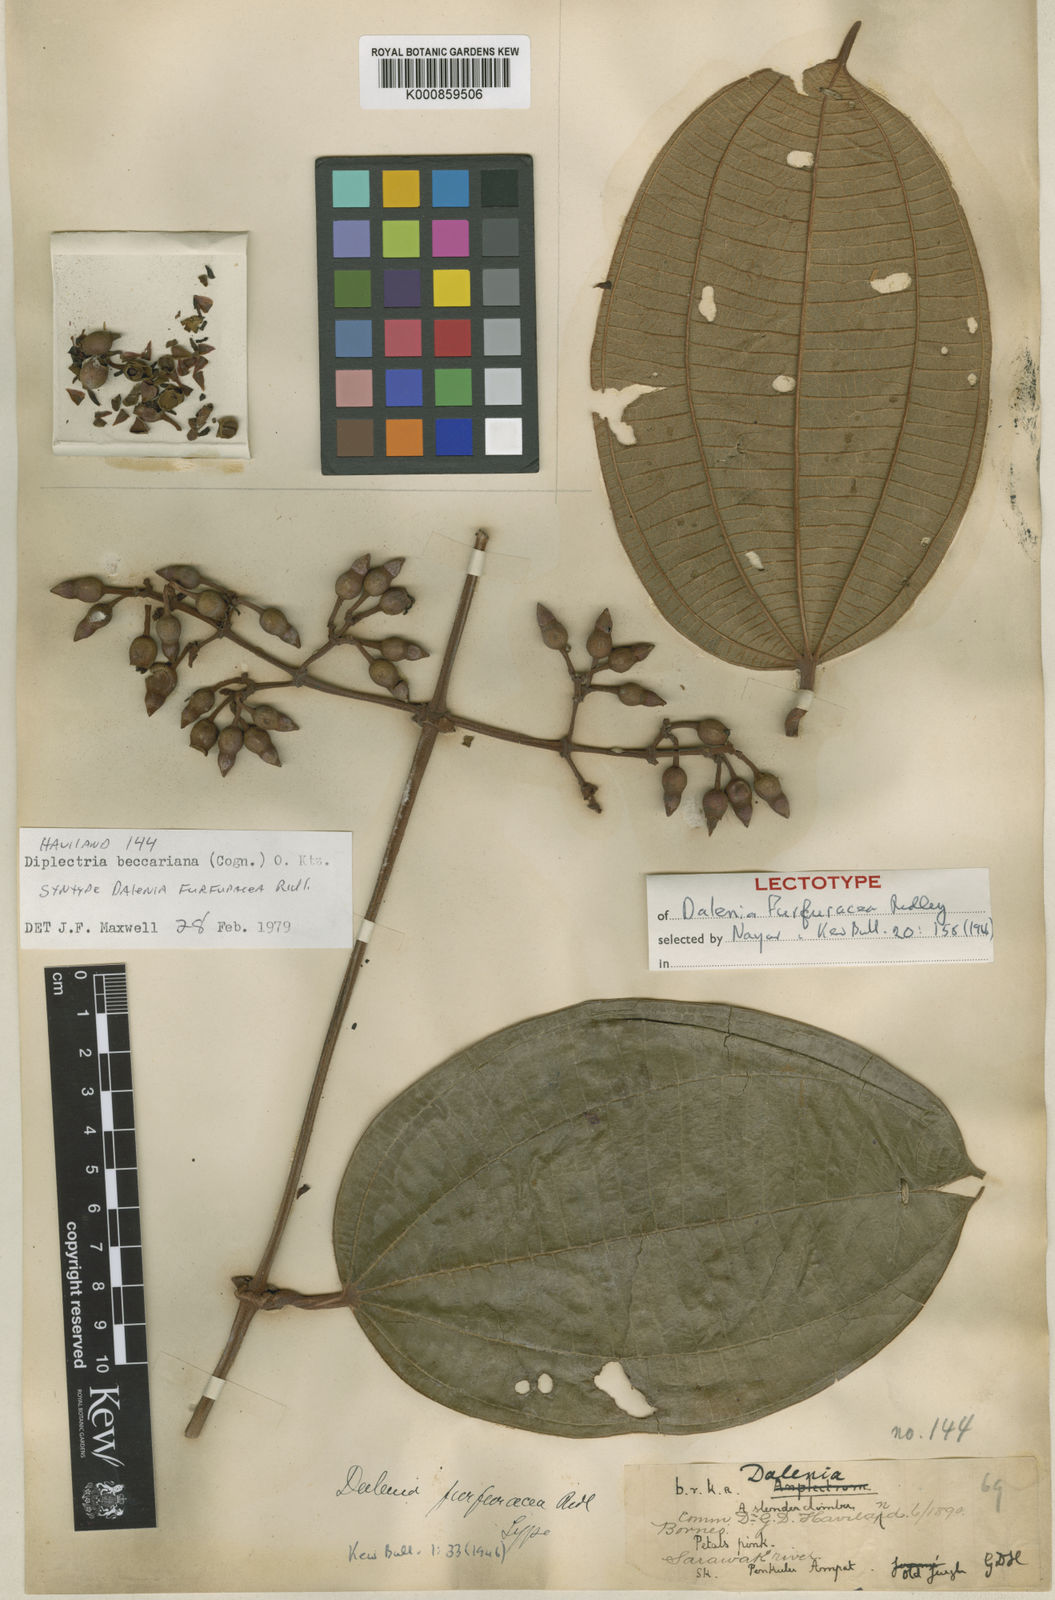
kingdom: Plantae
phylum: Tracheophyta
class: Magnoliopsida
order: Myrtales
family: Melastomataceae
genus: Dalenia
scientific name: Dalenia magnibracteata
